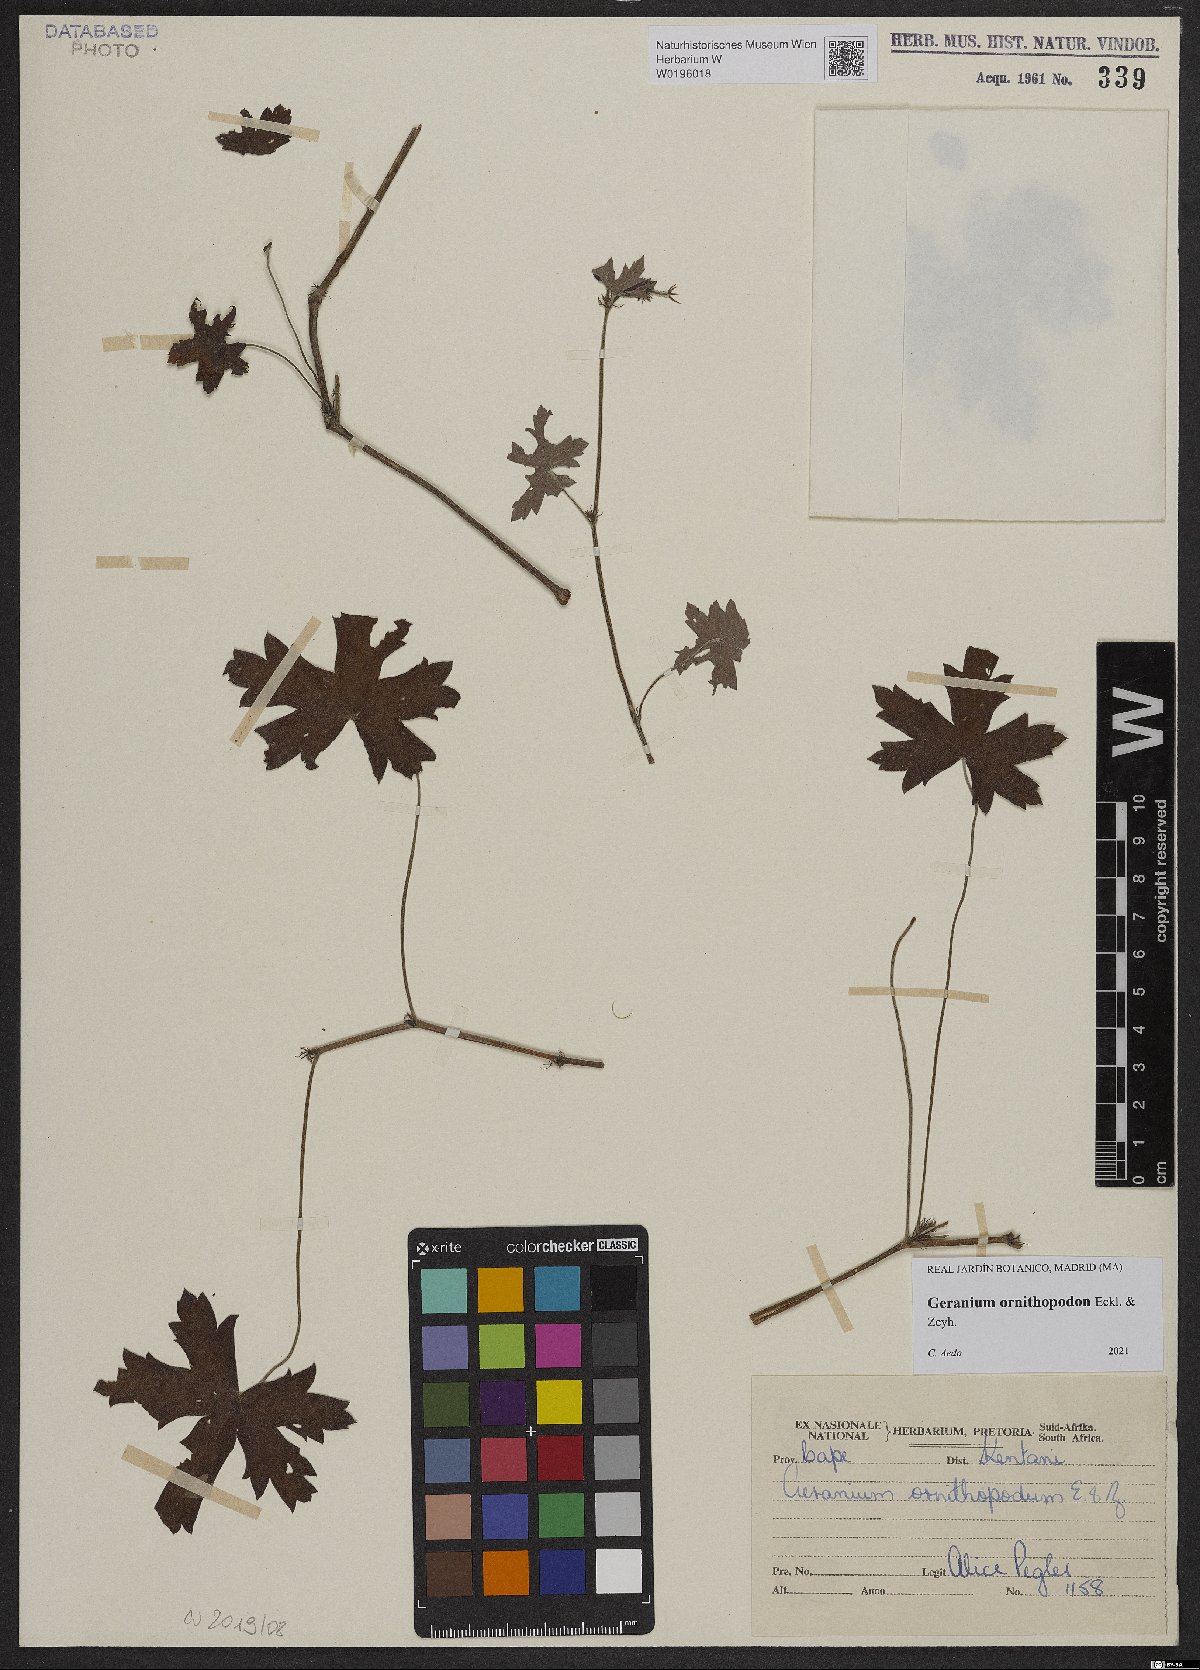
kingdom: Plantae
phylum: Tracheophyta
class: Magnoliopsida
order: Geraniales
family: Geraniaceae
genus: Geranium
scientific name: Geranium ornithopodon
